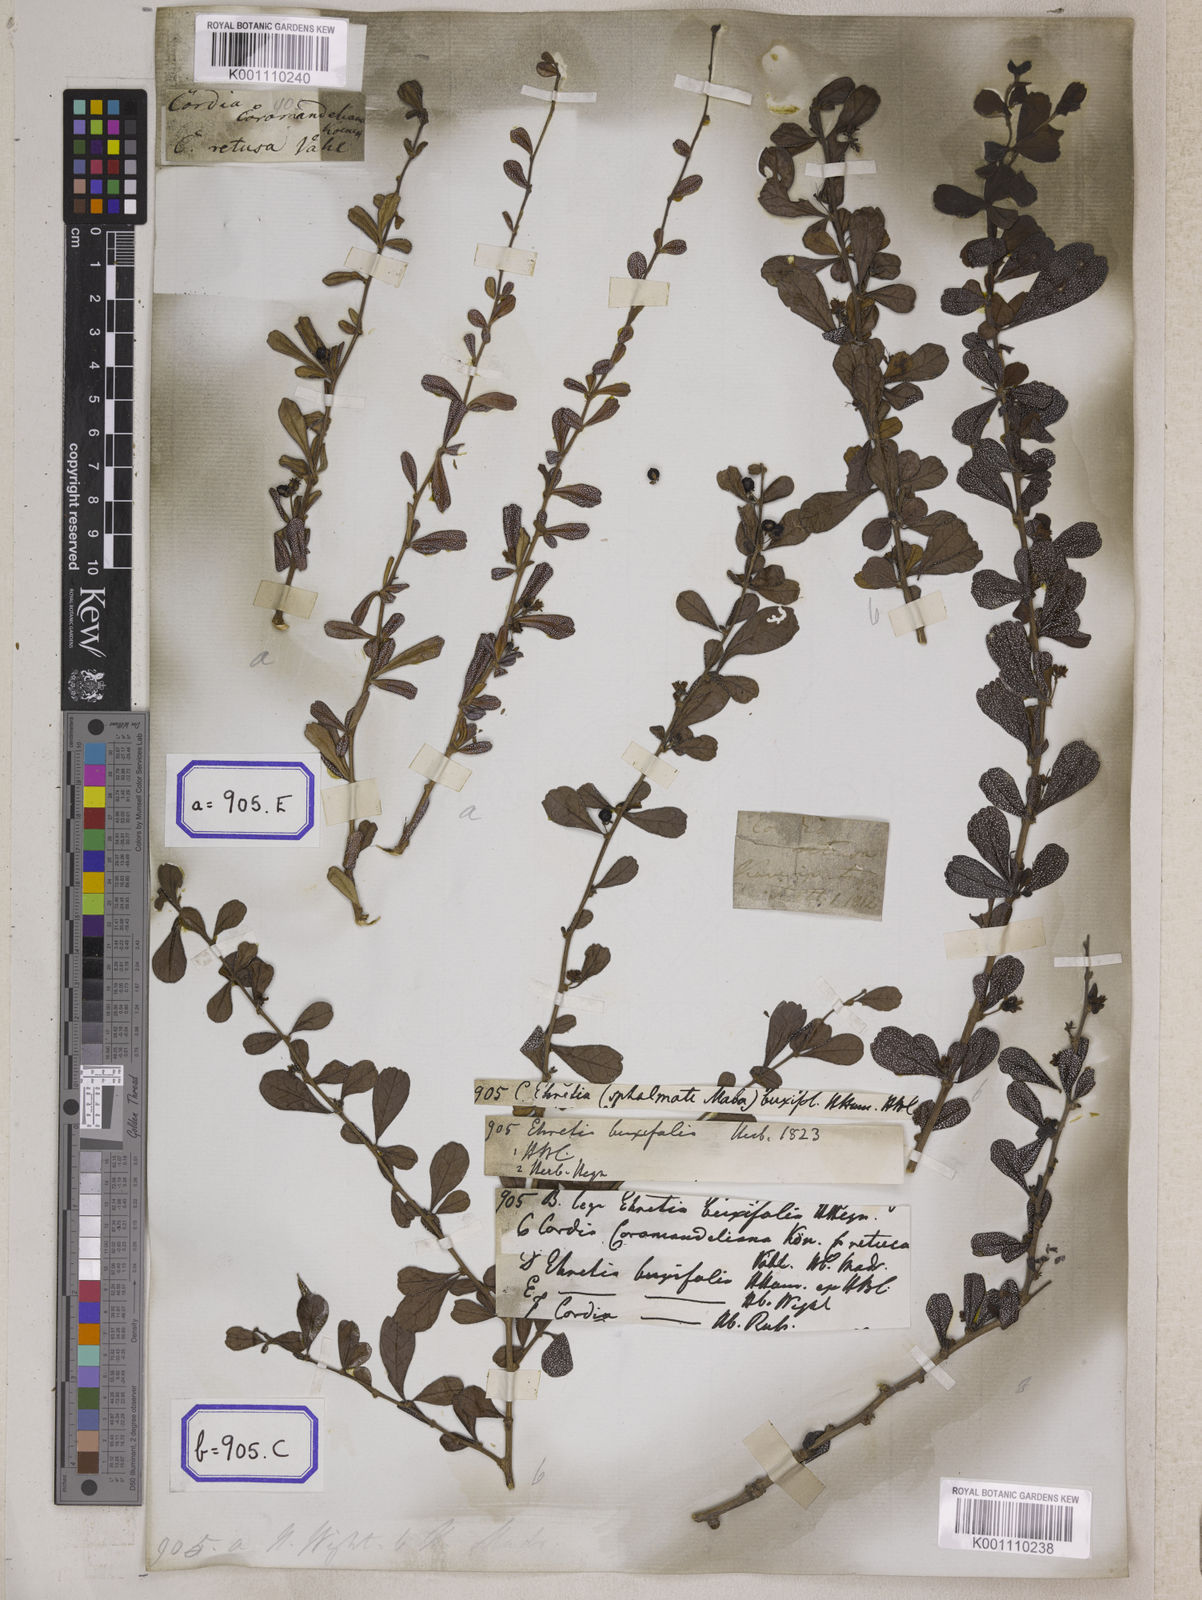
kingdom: Plantae
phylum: Tracheophyta
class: Magnoliopsida
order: Boraginales
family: Ehretiaceae
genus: Ehretia
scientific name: Ehretia microphylla
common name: Fukien-tea
